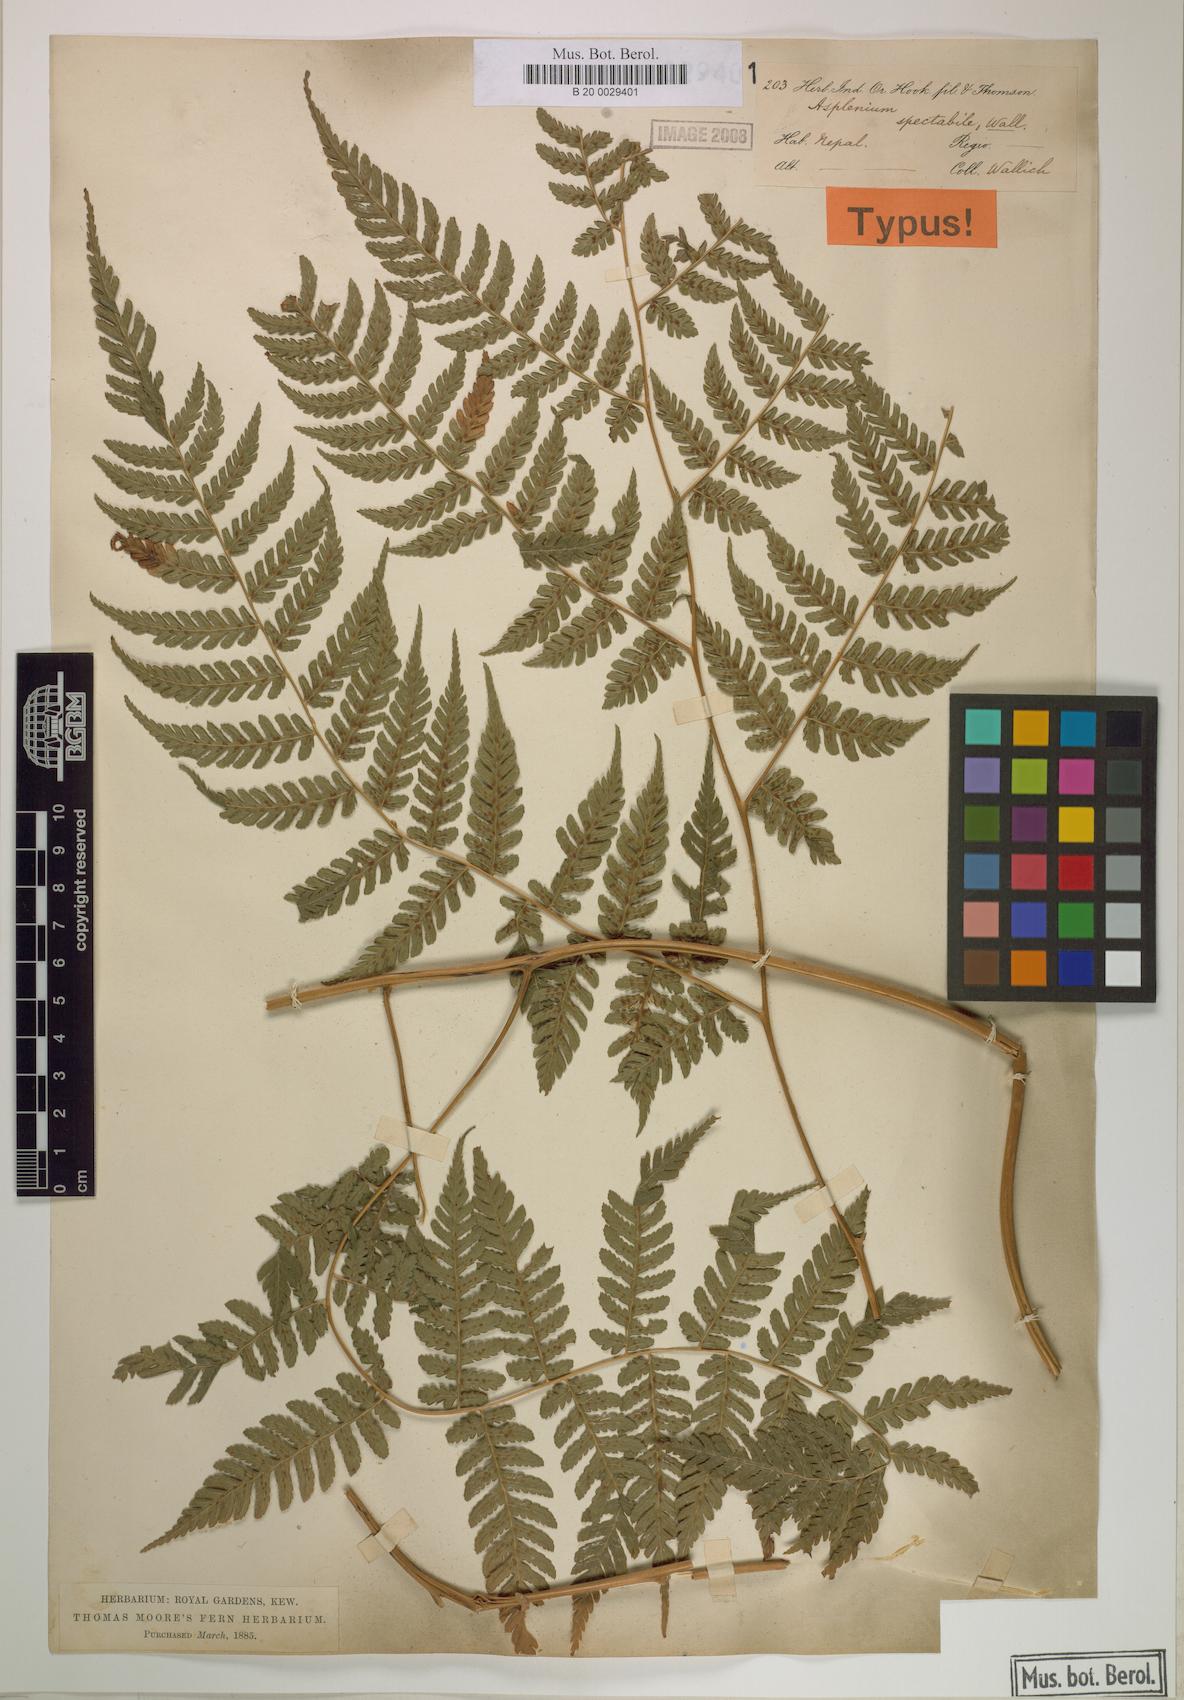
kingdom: Plantae
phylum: Tracheophyta
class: Polypodiopsida
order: Polypodiales
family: Athyriaceae
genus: Diplazium
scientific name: Diplazium spectabile
